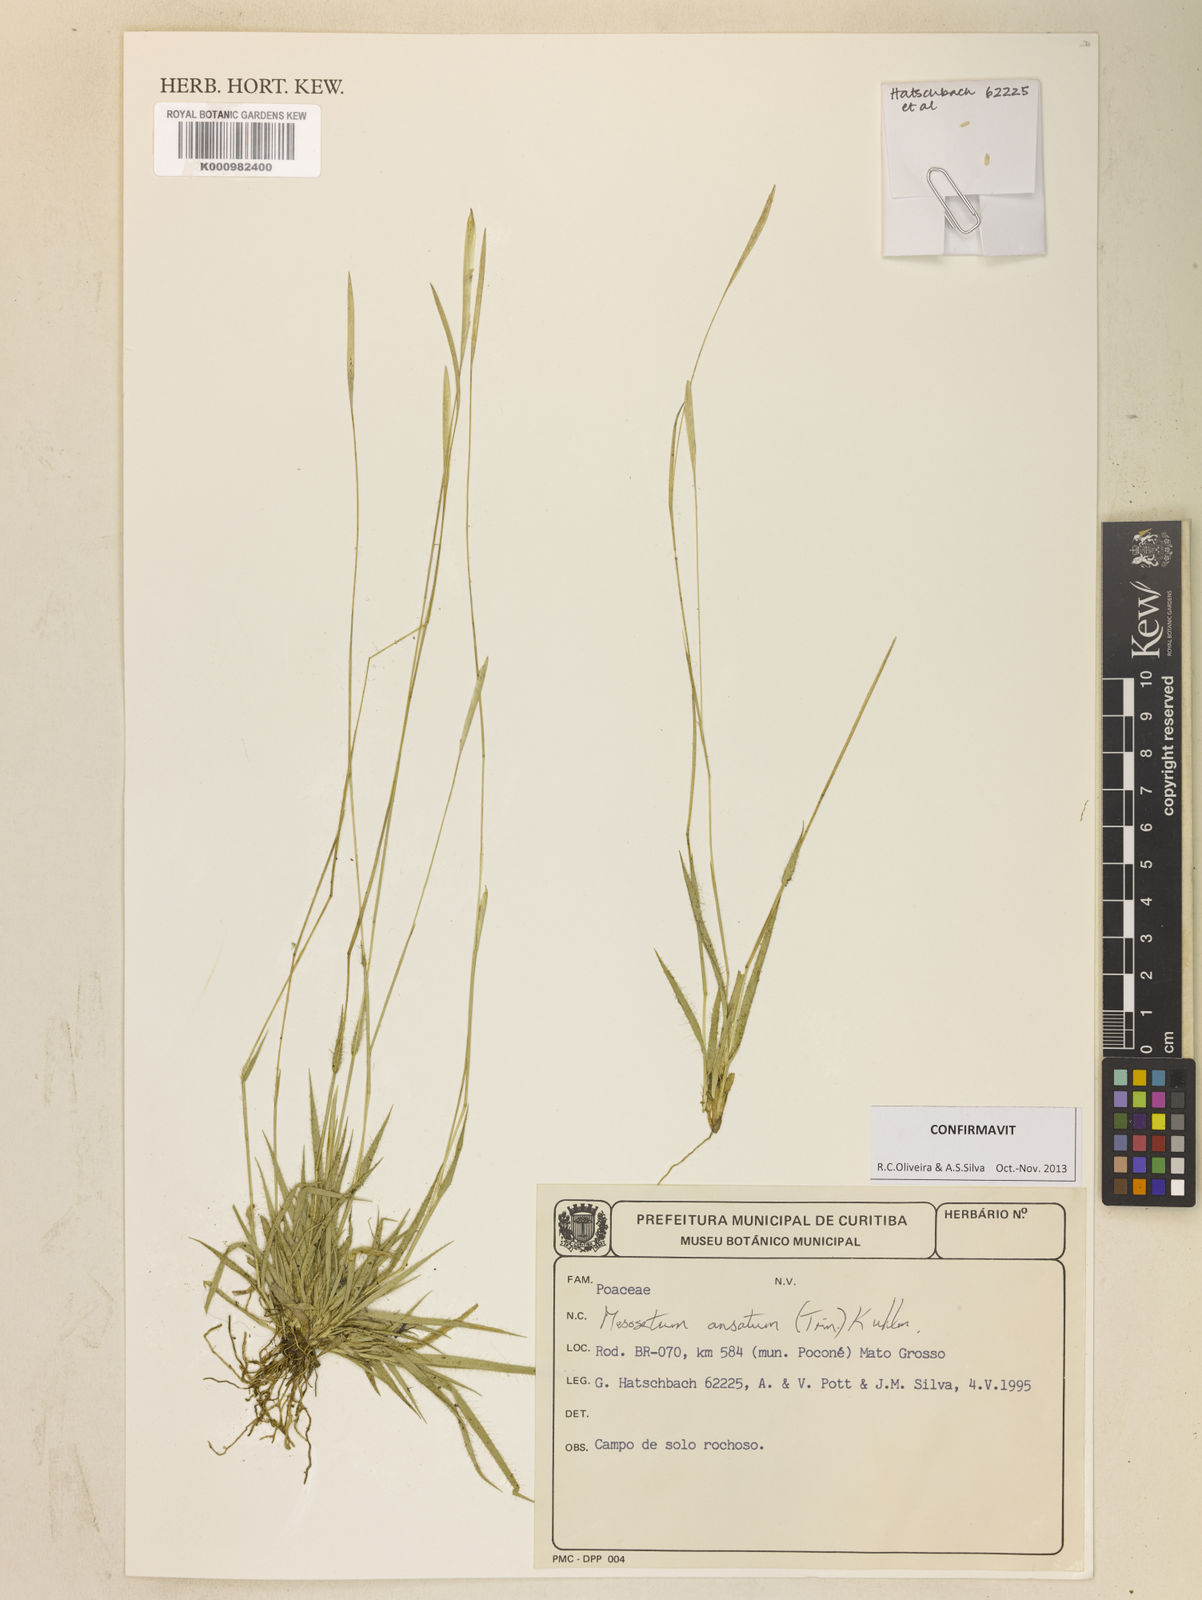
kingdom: Plantae
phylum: Tracheophyta
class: Liliopsida
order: Poales
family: Poaceae
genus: Mesosetum
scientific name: Mesosetum ansatum
